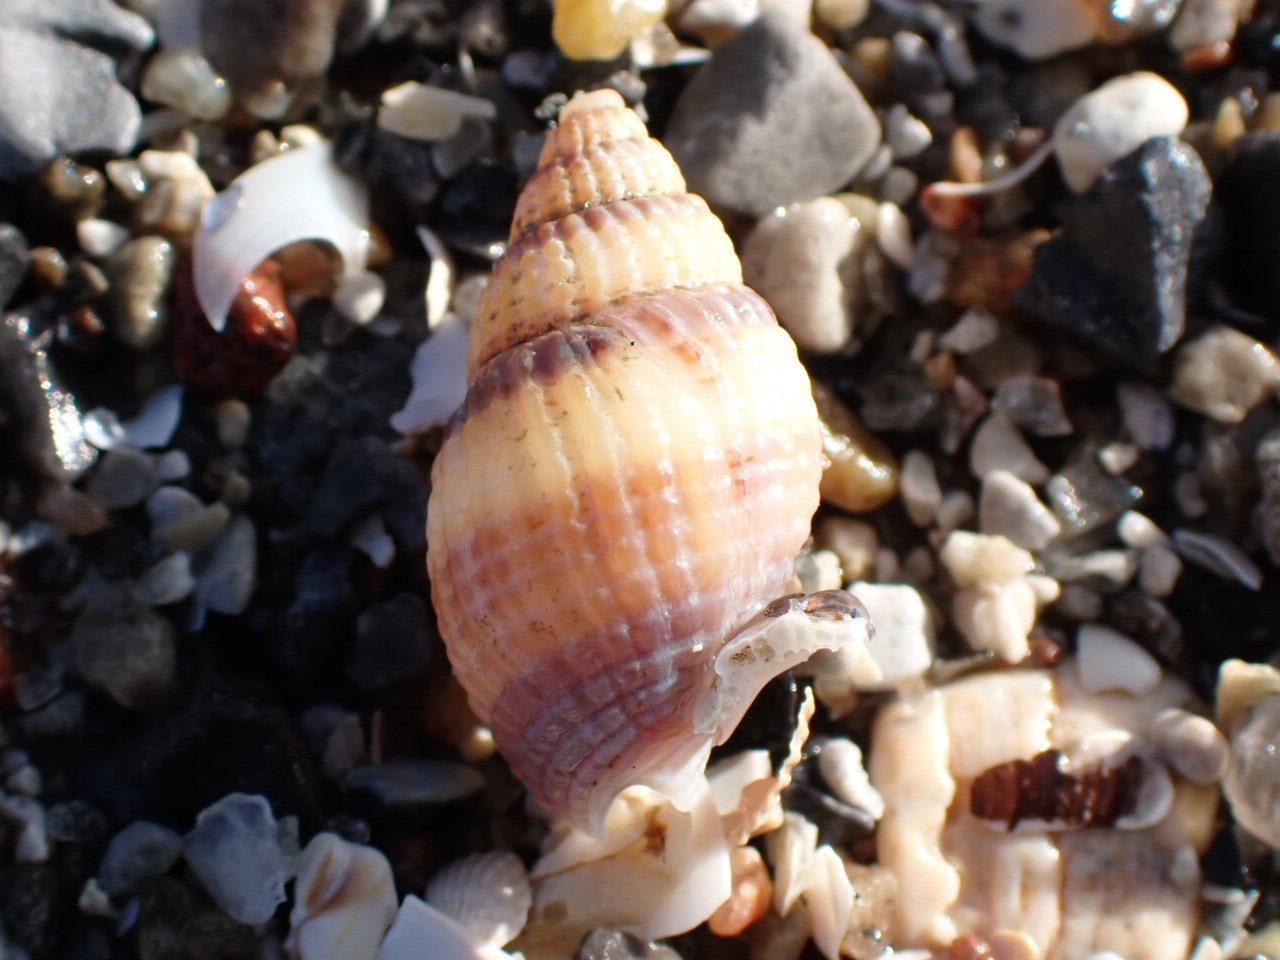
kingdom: Animalia
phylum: Mollusca
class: Gastropoda
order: Neogastropoda
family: Nassariidae
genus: Tritia
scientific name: Tritia reticulata
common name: Dværgkonk
